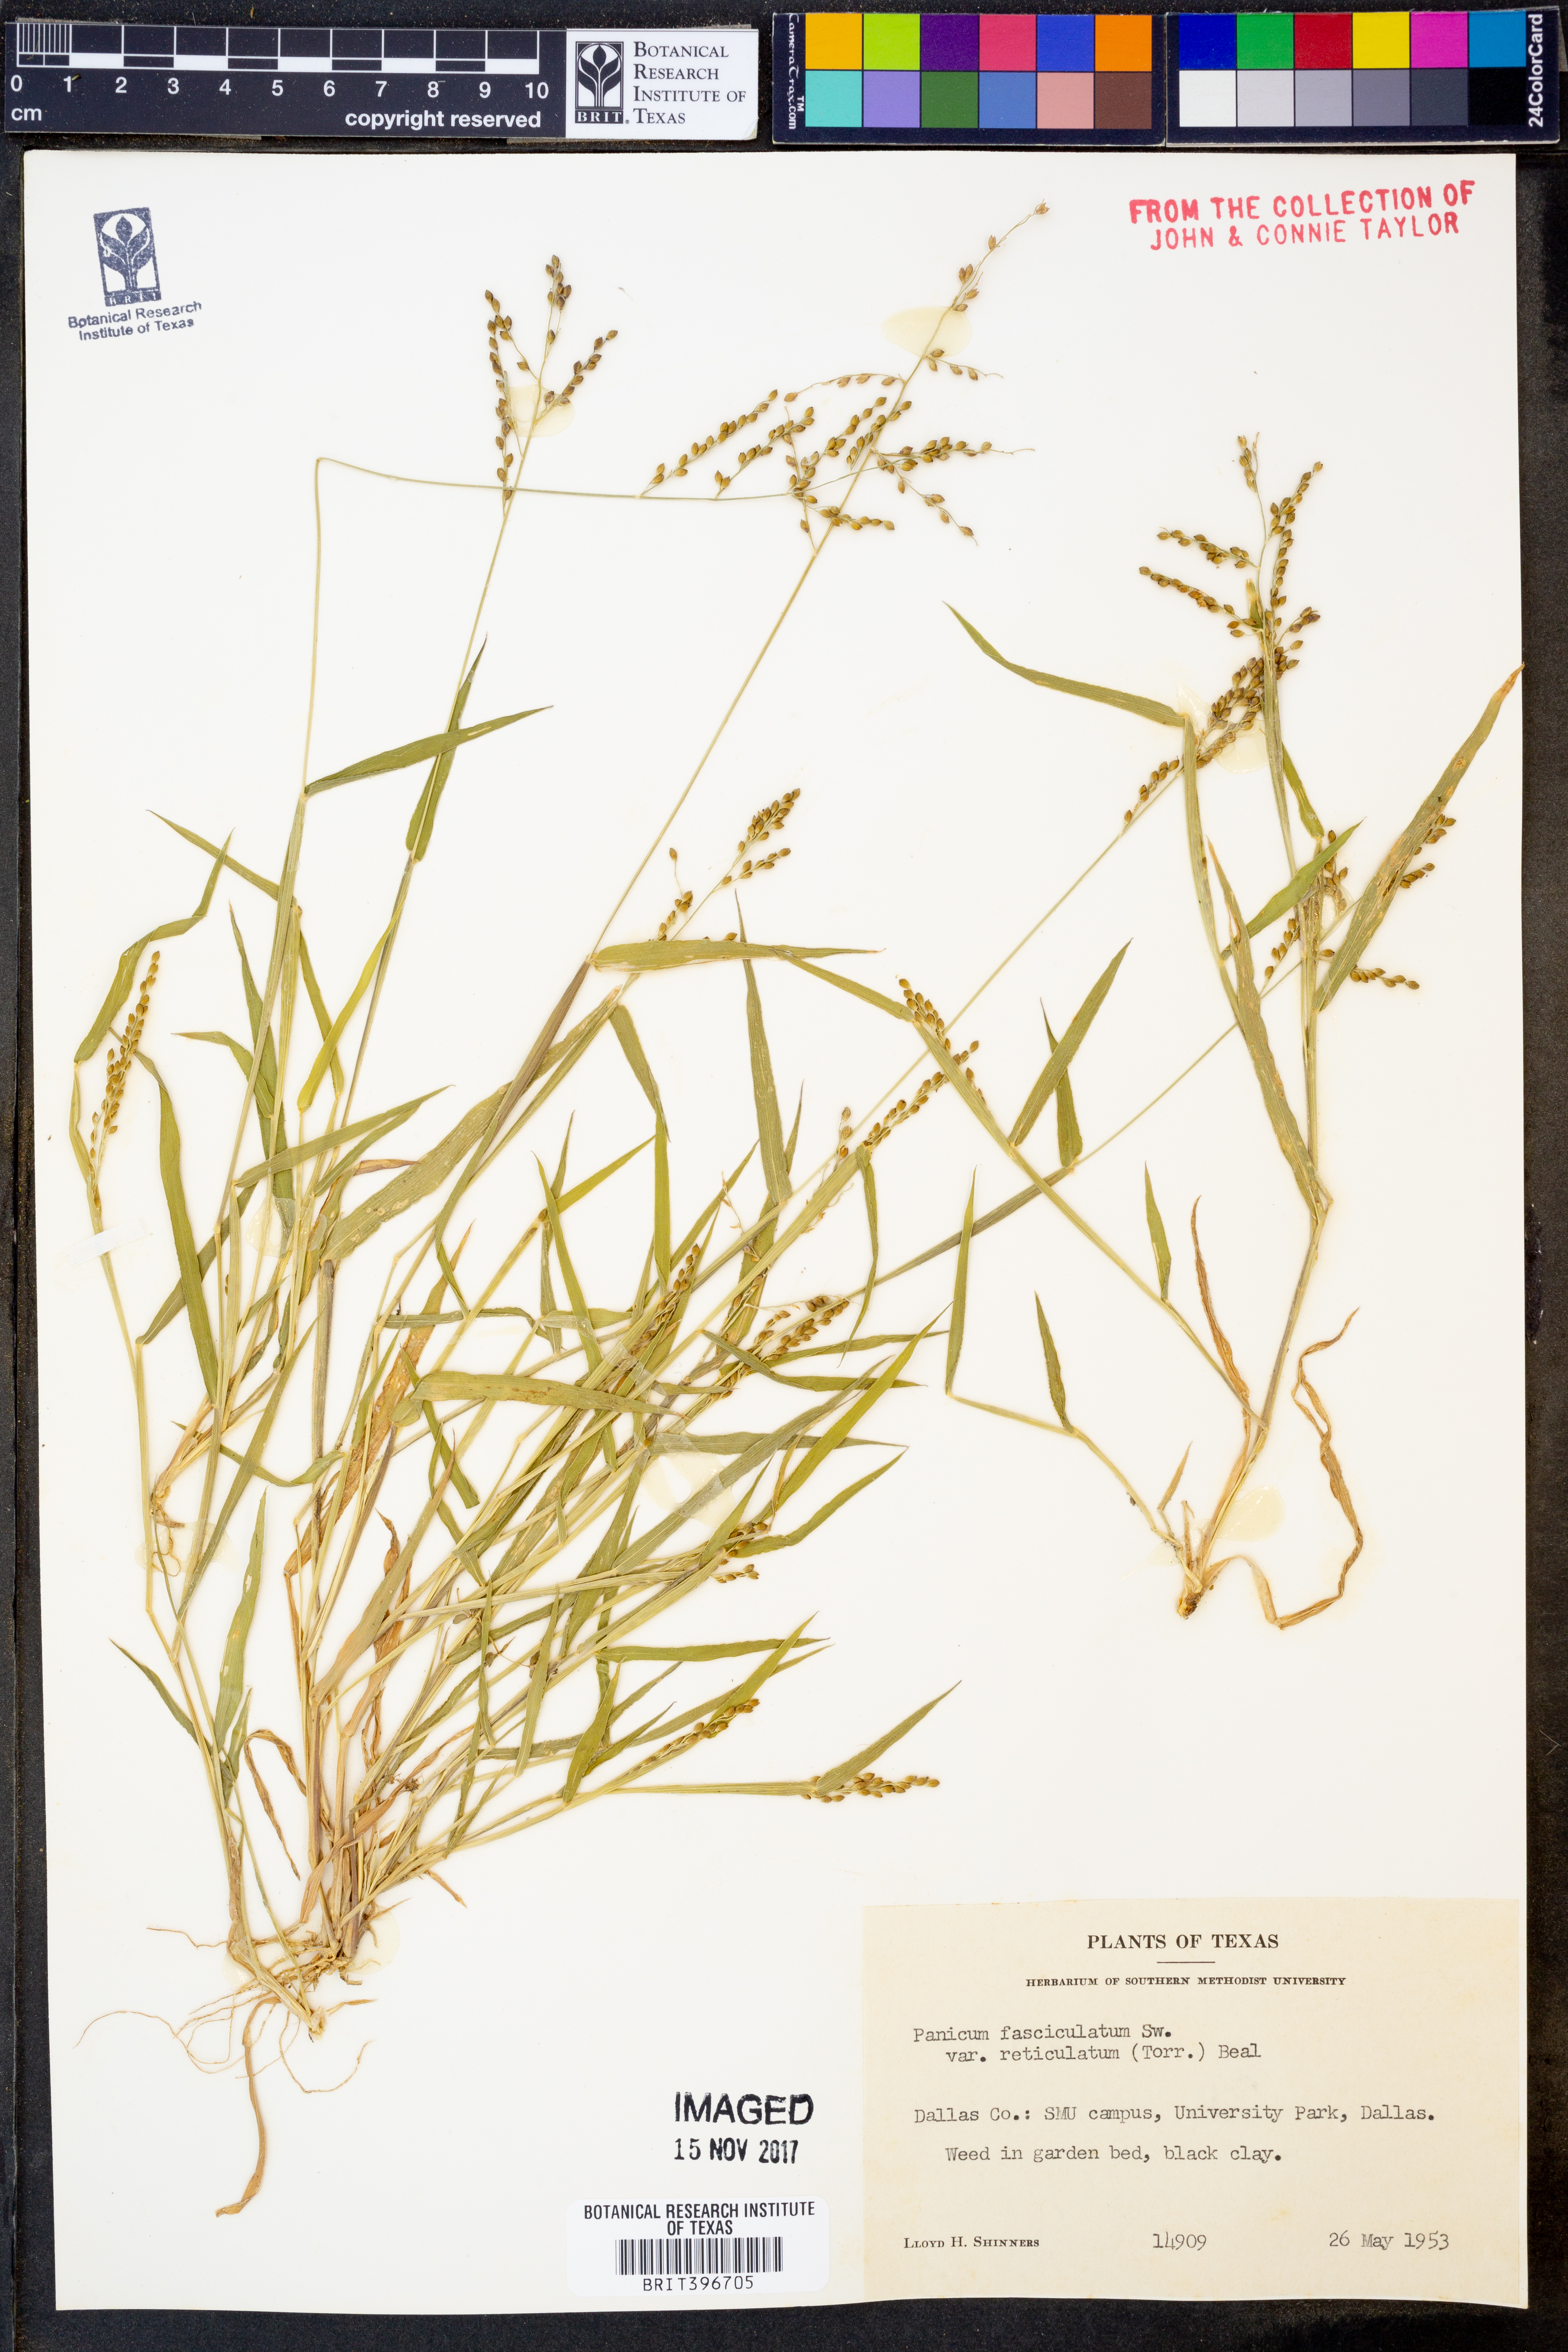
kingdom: Plantae
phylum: Tracheophyta
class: Liliopsida
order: Poales
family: Poaceae
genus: Urochloa
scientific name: Urochloa fusca
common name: Browntop signal grass
